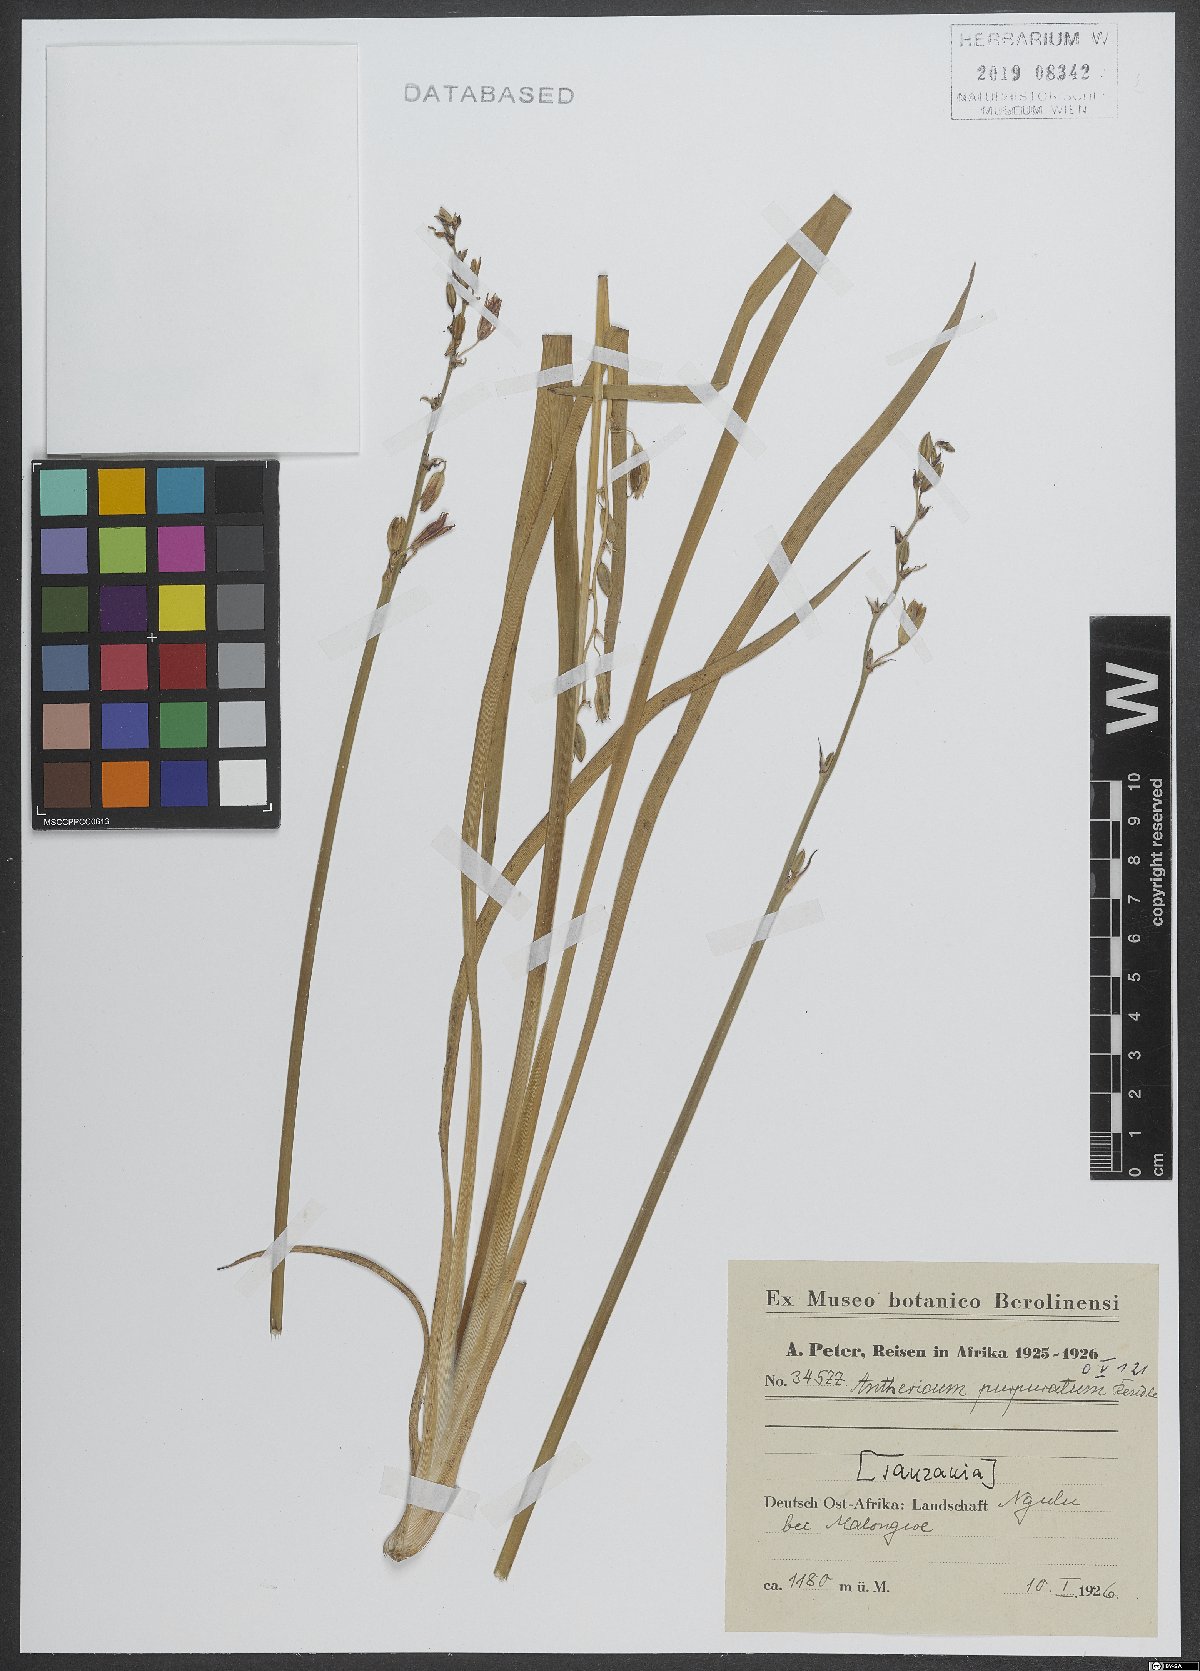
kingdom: Plantae
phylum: Tracheophyta
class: Liliopsida
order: Asparagales
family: Asparagaceae
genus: Chlorophytum
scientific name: Chlorophytum cameronii
